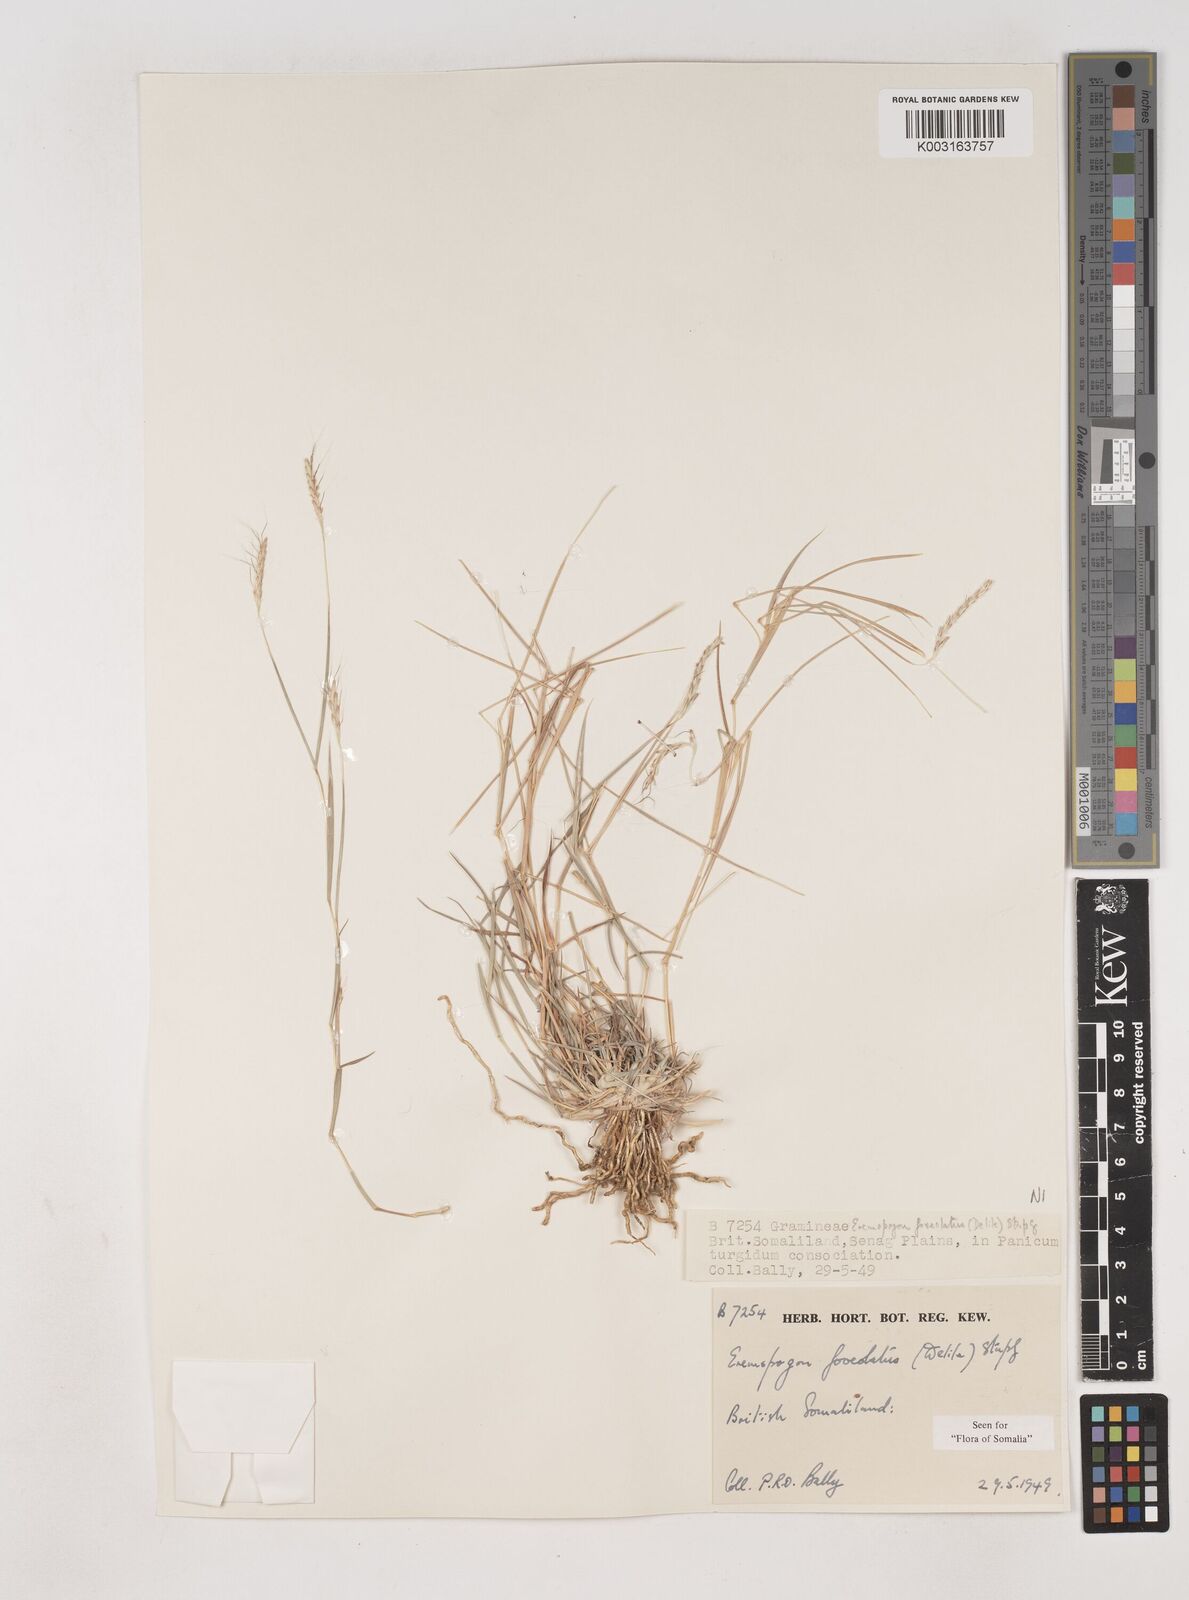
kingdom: Plantae
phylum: Tracheophyta
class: Liliopsida
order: Poales
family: Poaceae
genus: Dichanthium
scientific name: Dichanthium foveolatum
